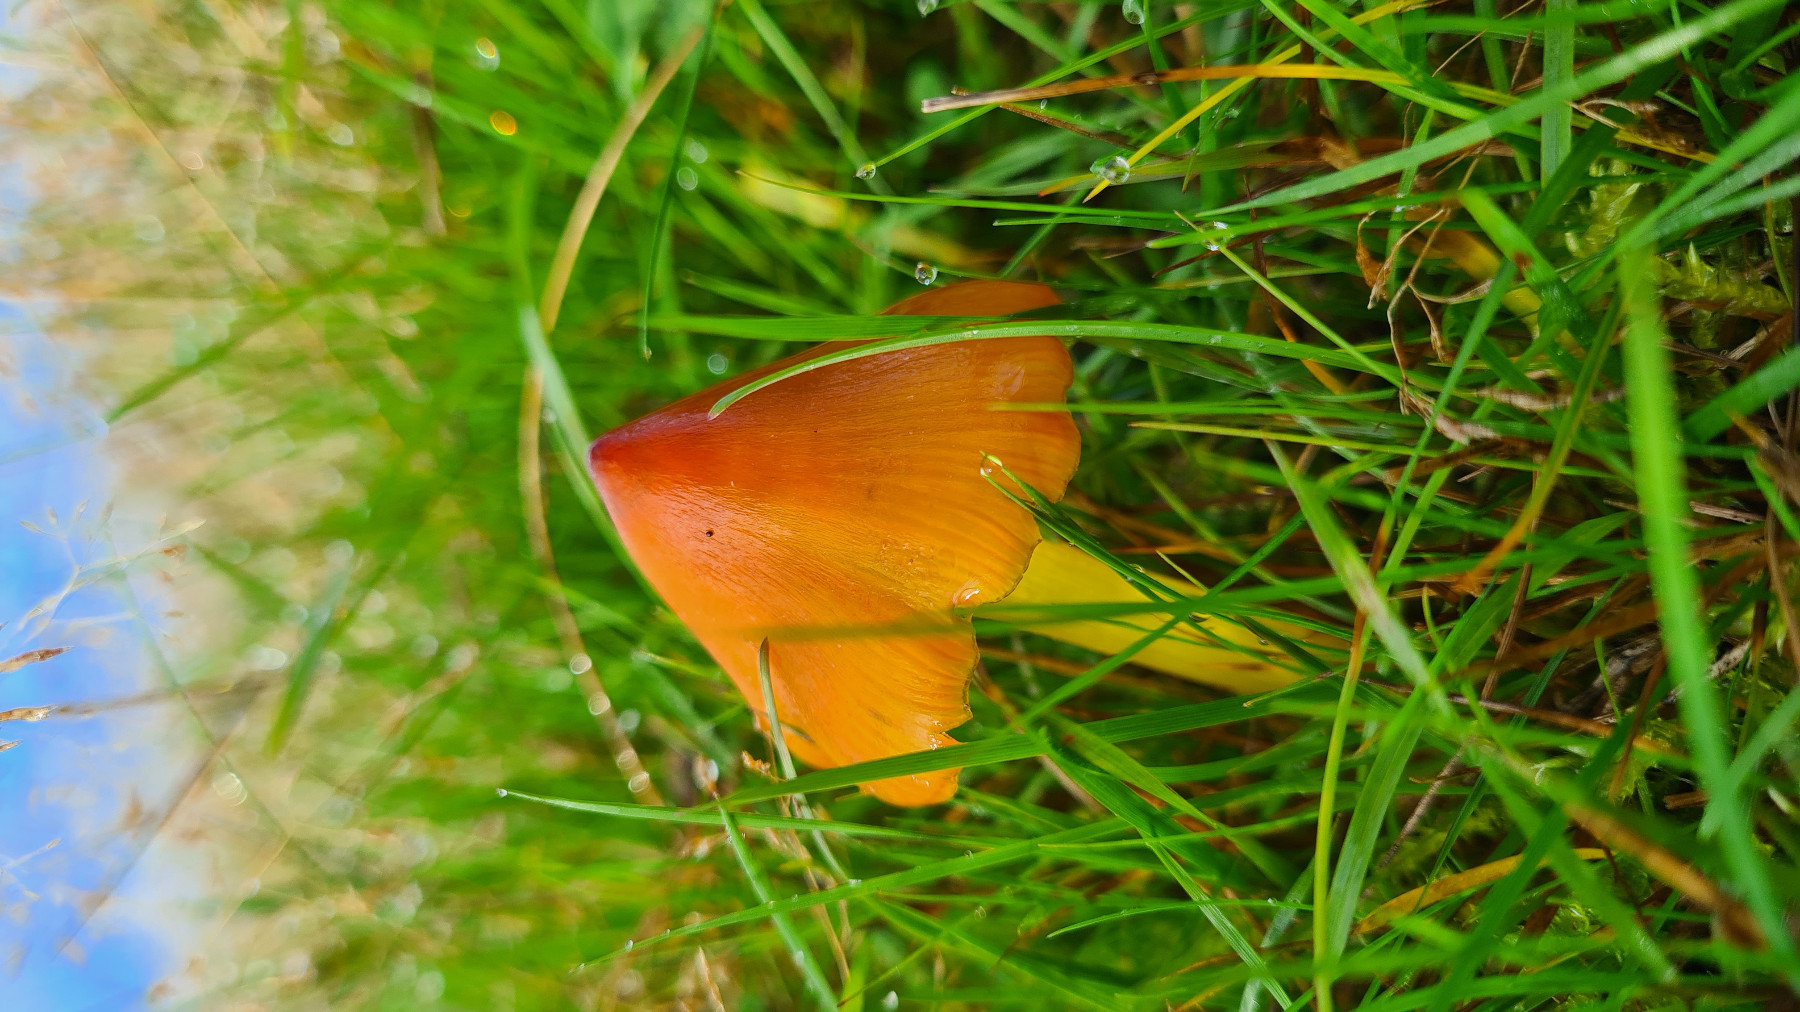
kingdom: Fungi
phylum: Basidiomycota
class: Agaricomycetes
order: Agaricales
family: Hygrophoraceae
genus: Hygrocybe
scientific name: Hygrocybe conica
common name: kegle-vokshat
